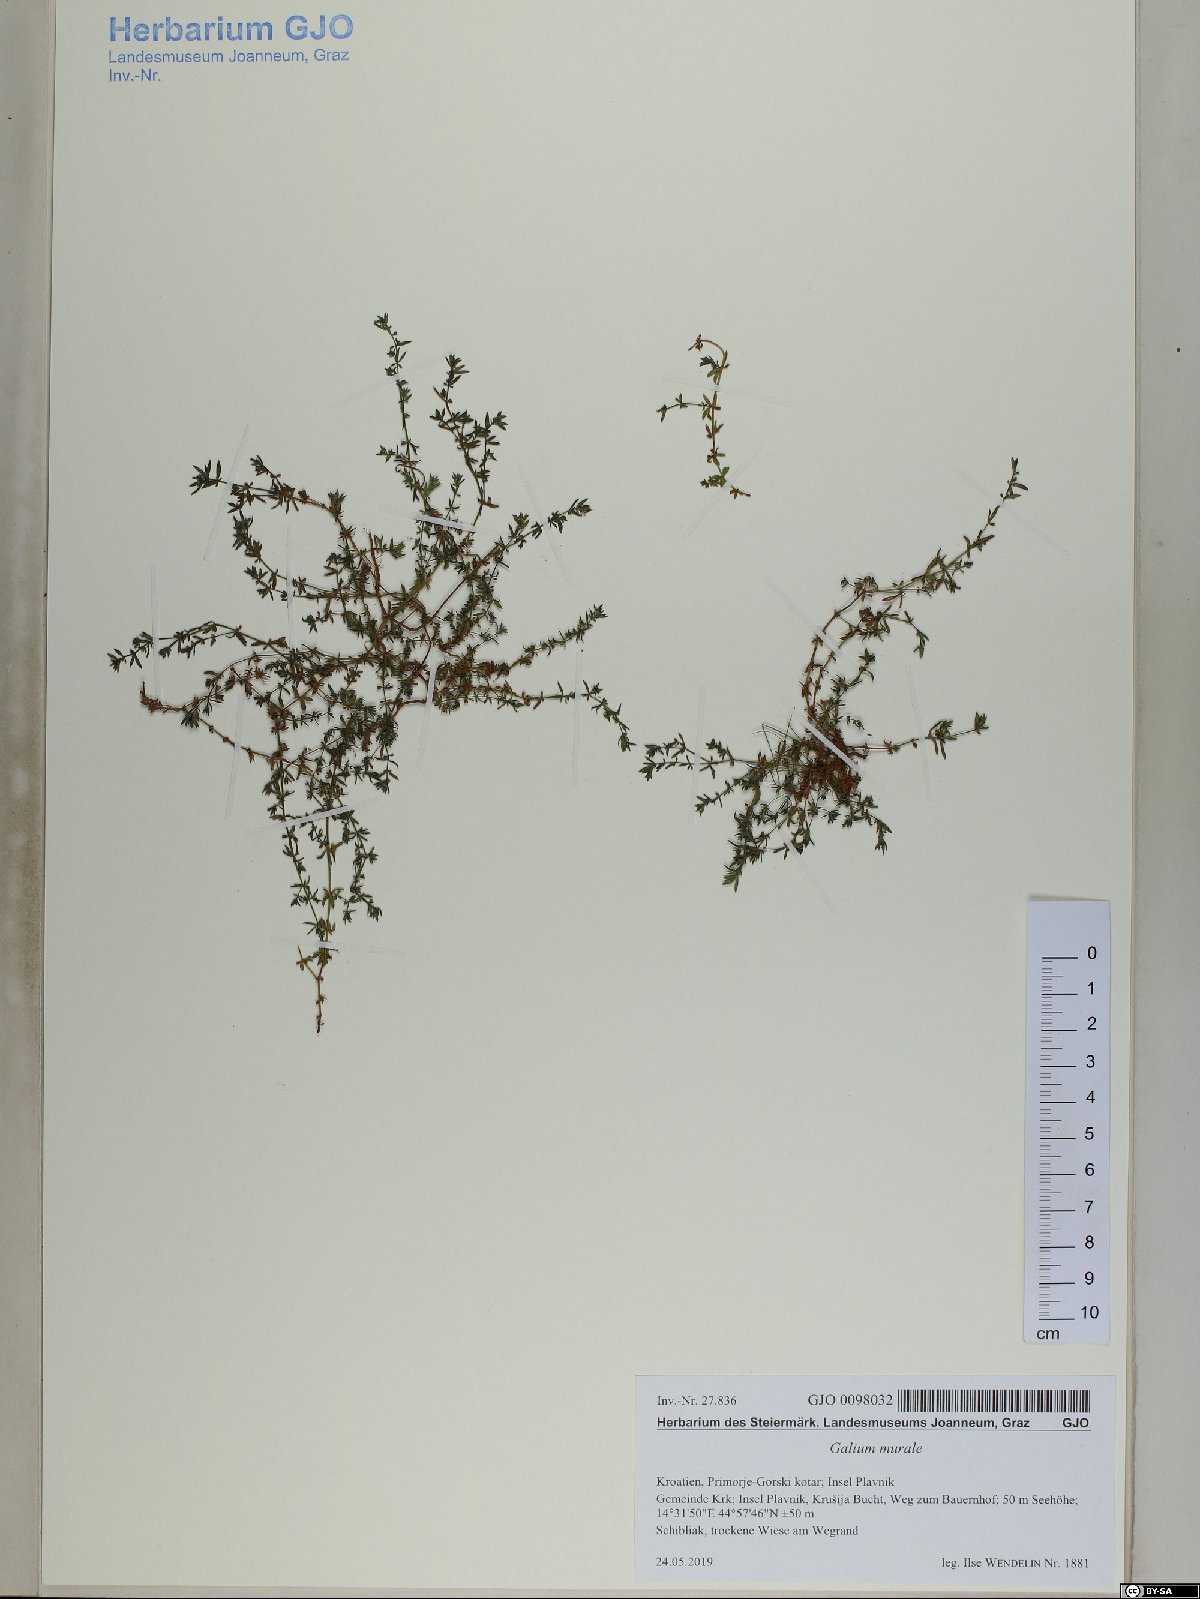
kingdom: Plantae
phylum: Tracheophyta
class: Magnoliopsida
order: Gentianales
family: Rubiaceae
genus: Galium
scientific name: Galium murale
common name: Yellow wall bedstraw
